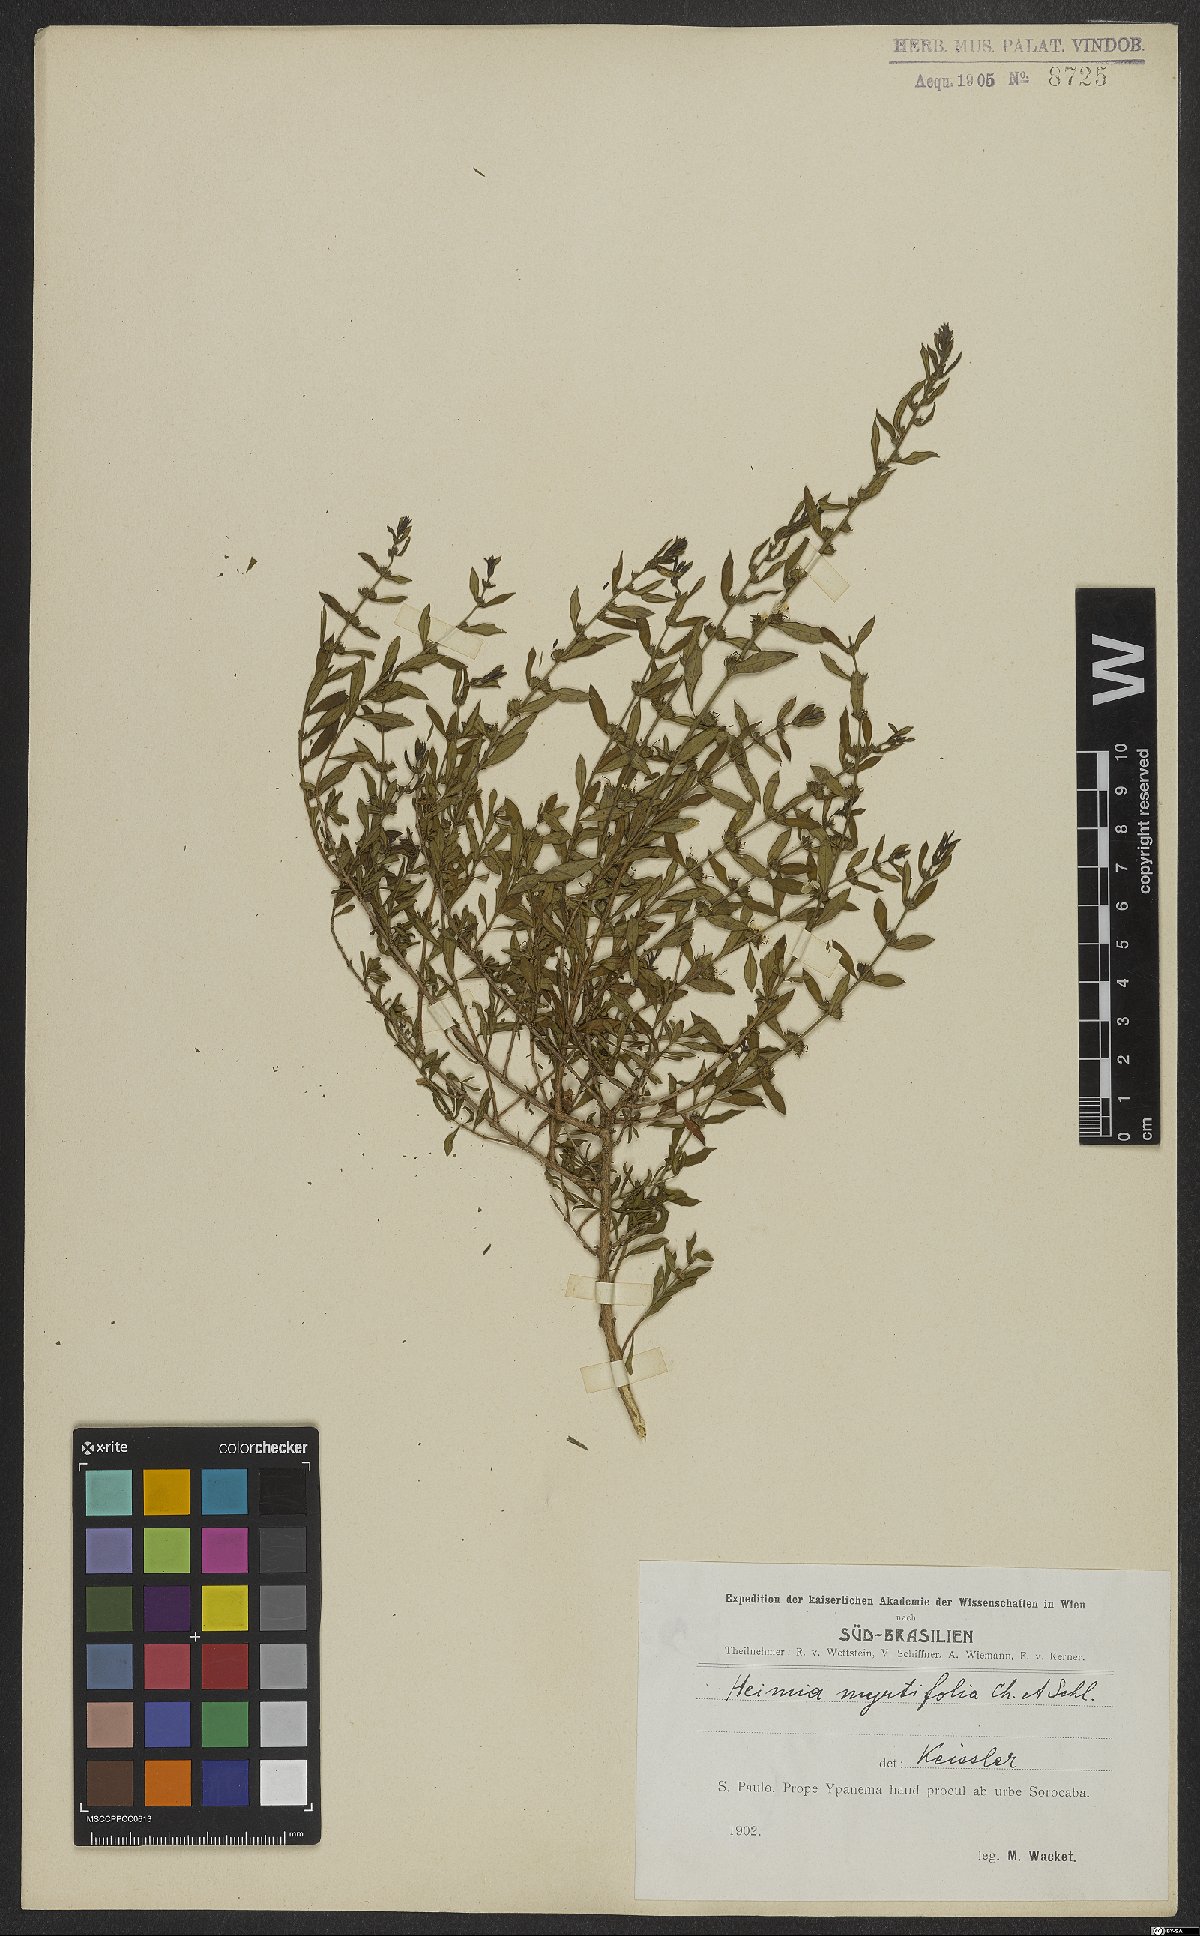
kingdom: Plantae
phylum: Tracheophyta
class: Magnoliopsida
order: Myrtales
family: Lythraceae
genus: Heimia
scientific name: Heimia apetala
